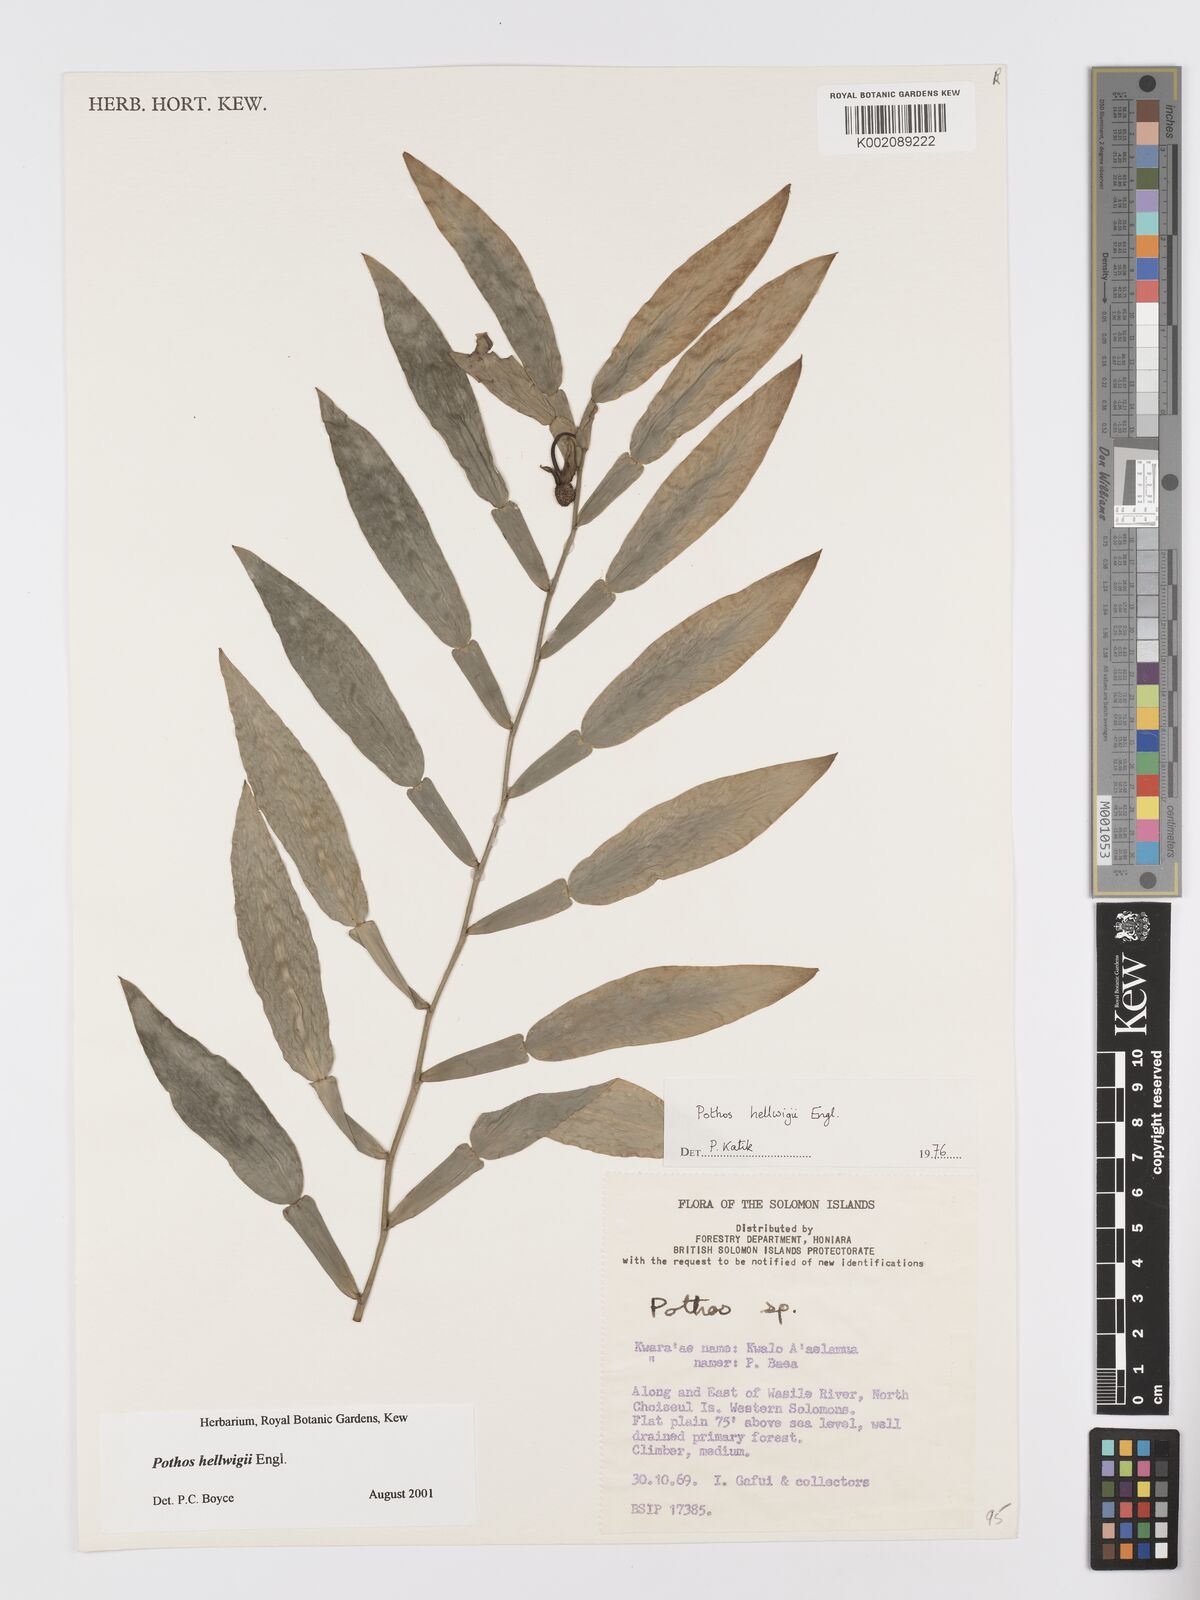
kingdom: Plantae
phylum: Tracheophyta
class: Liliopsida
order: Alismatales
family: Araceae
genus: Pothos
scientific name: Pothos hellwigii
